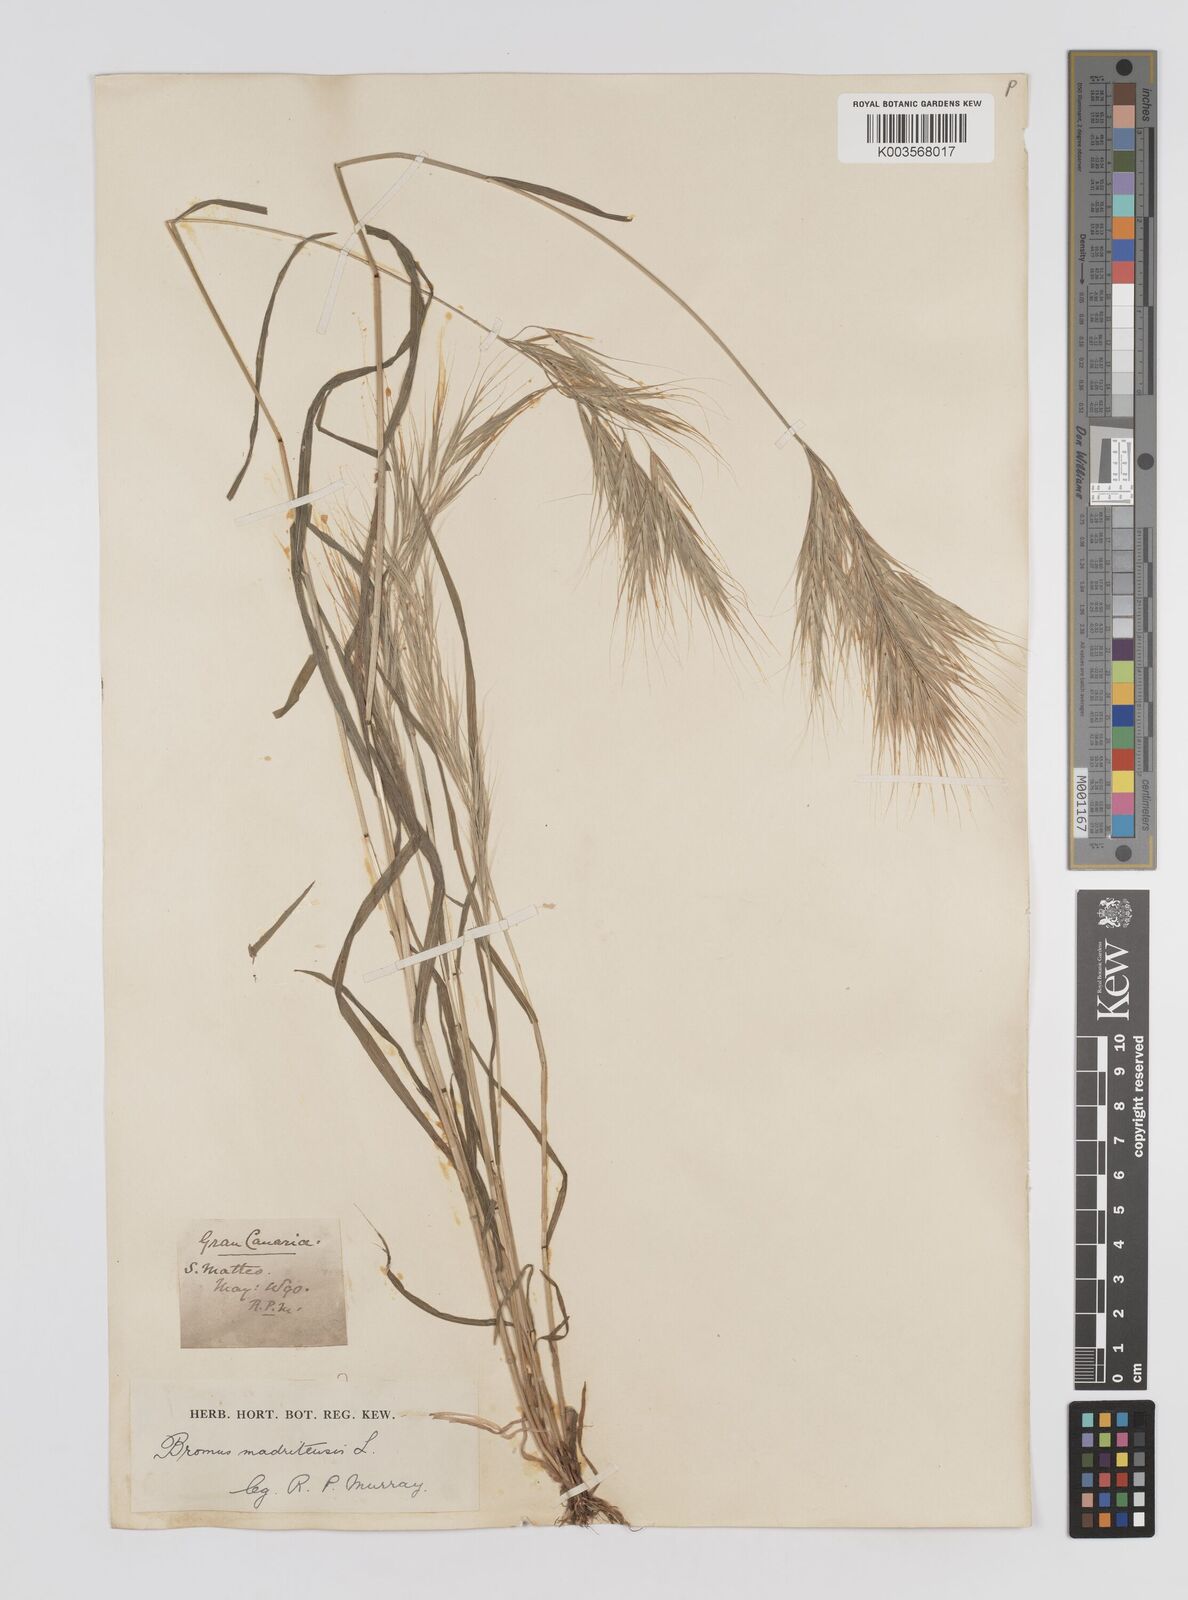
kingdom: Plantae
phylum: Tracheophyta
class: Liliopsida
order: Poales
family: Poaceae
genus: Bromus
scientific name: Bromus
